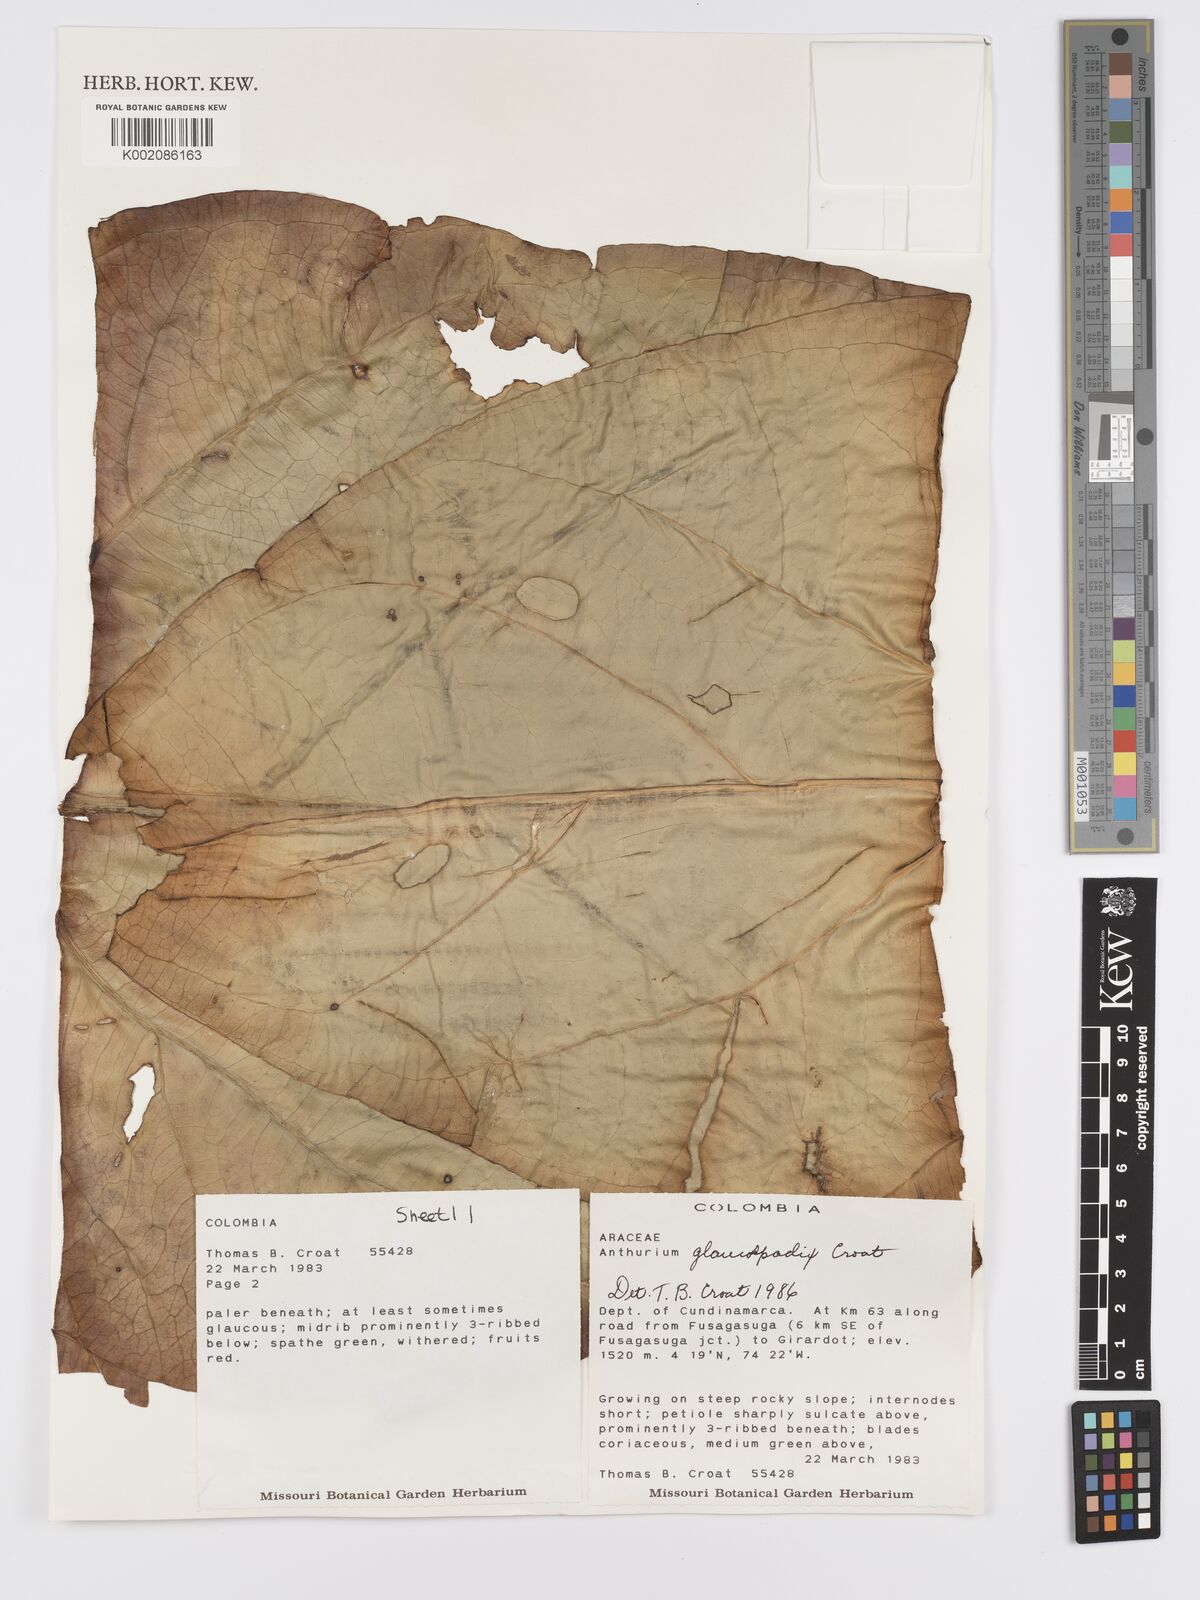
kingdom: Plantae
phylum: Tracheophyta
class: Liliopsida
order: Alismatales
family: Araceae
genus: Anthurium
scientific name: Anthurium glaucospadix
